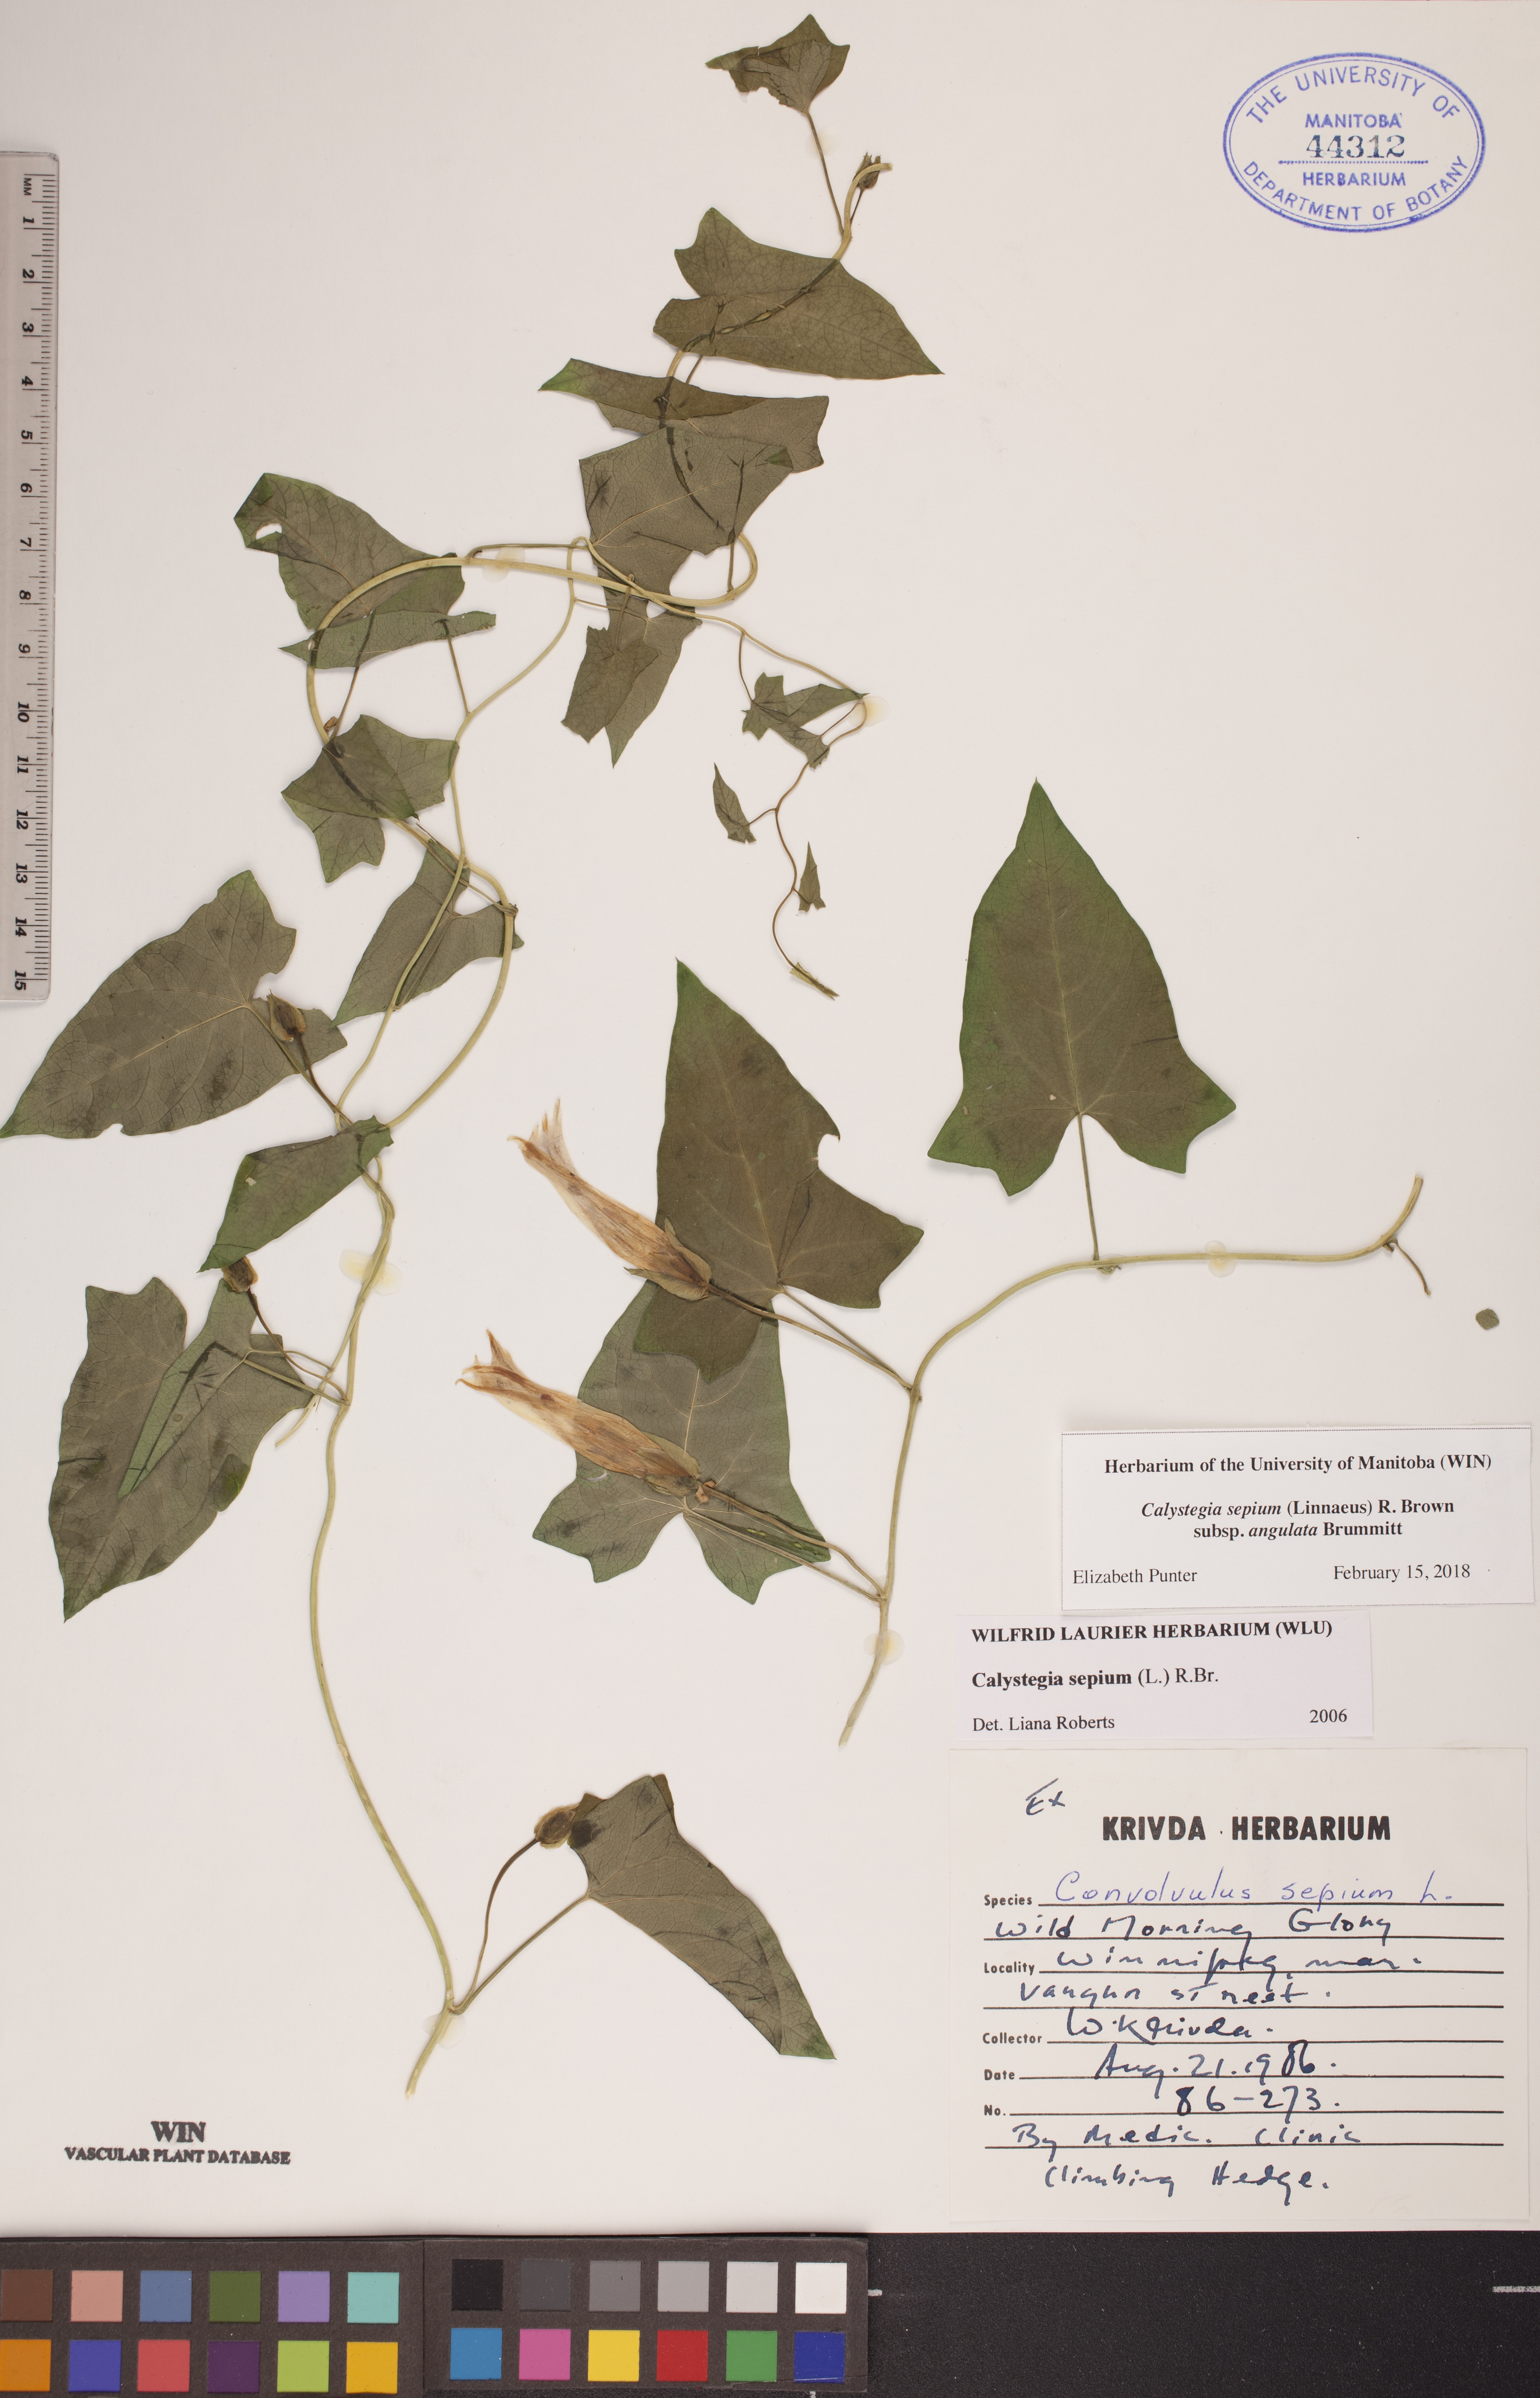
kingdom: Plantae
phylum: Tracheophyta
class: Magnoliopsida
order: Solanales
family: Convolvulaceae
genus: Calystegia
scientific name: Calystegia sepium
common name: Hedge bindweed
